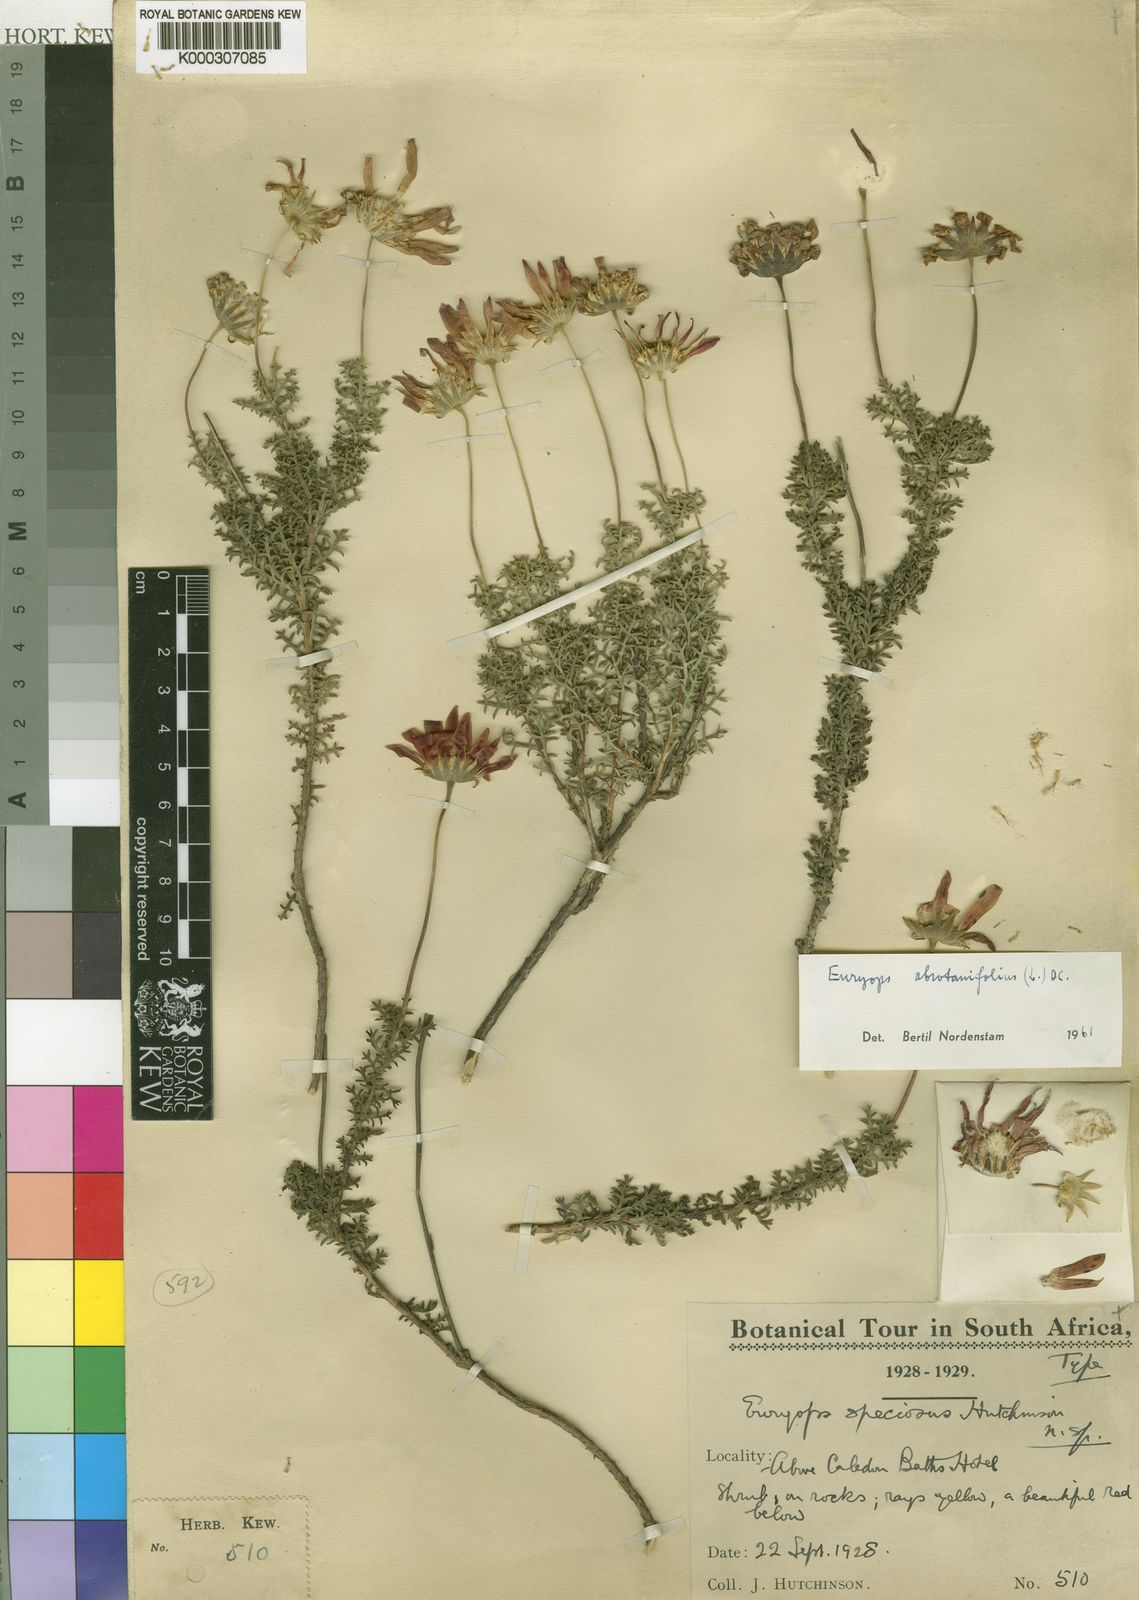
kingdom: Plantae
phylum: Tracheophyta
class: Magnoliopsida
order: Asterales
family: Asteraceae
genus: Euryops
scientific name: Euryops abrotanifolius
